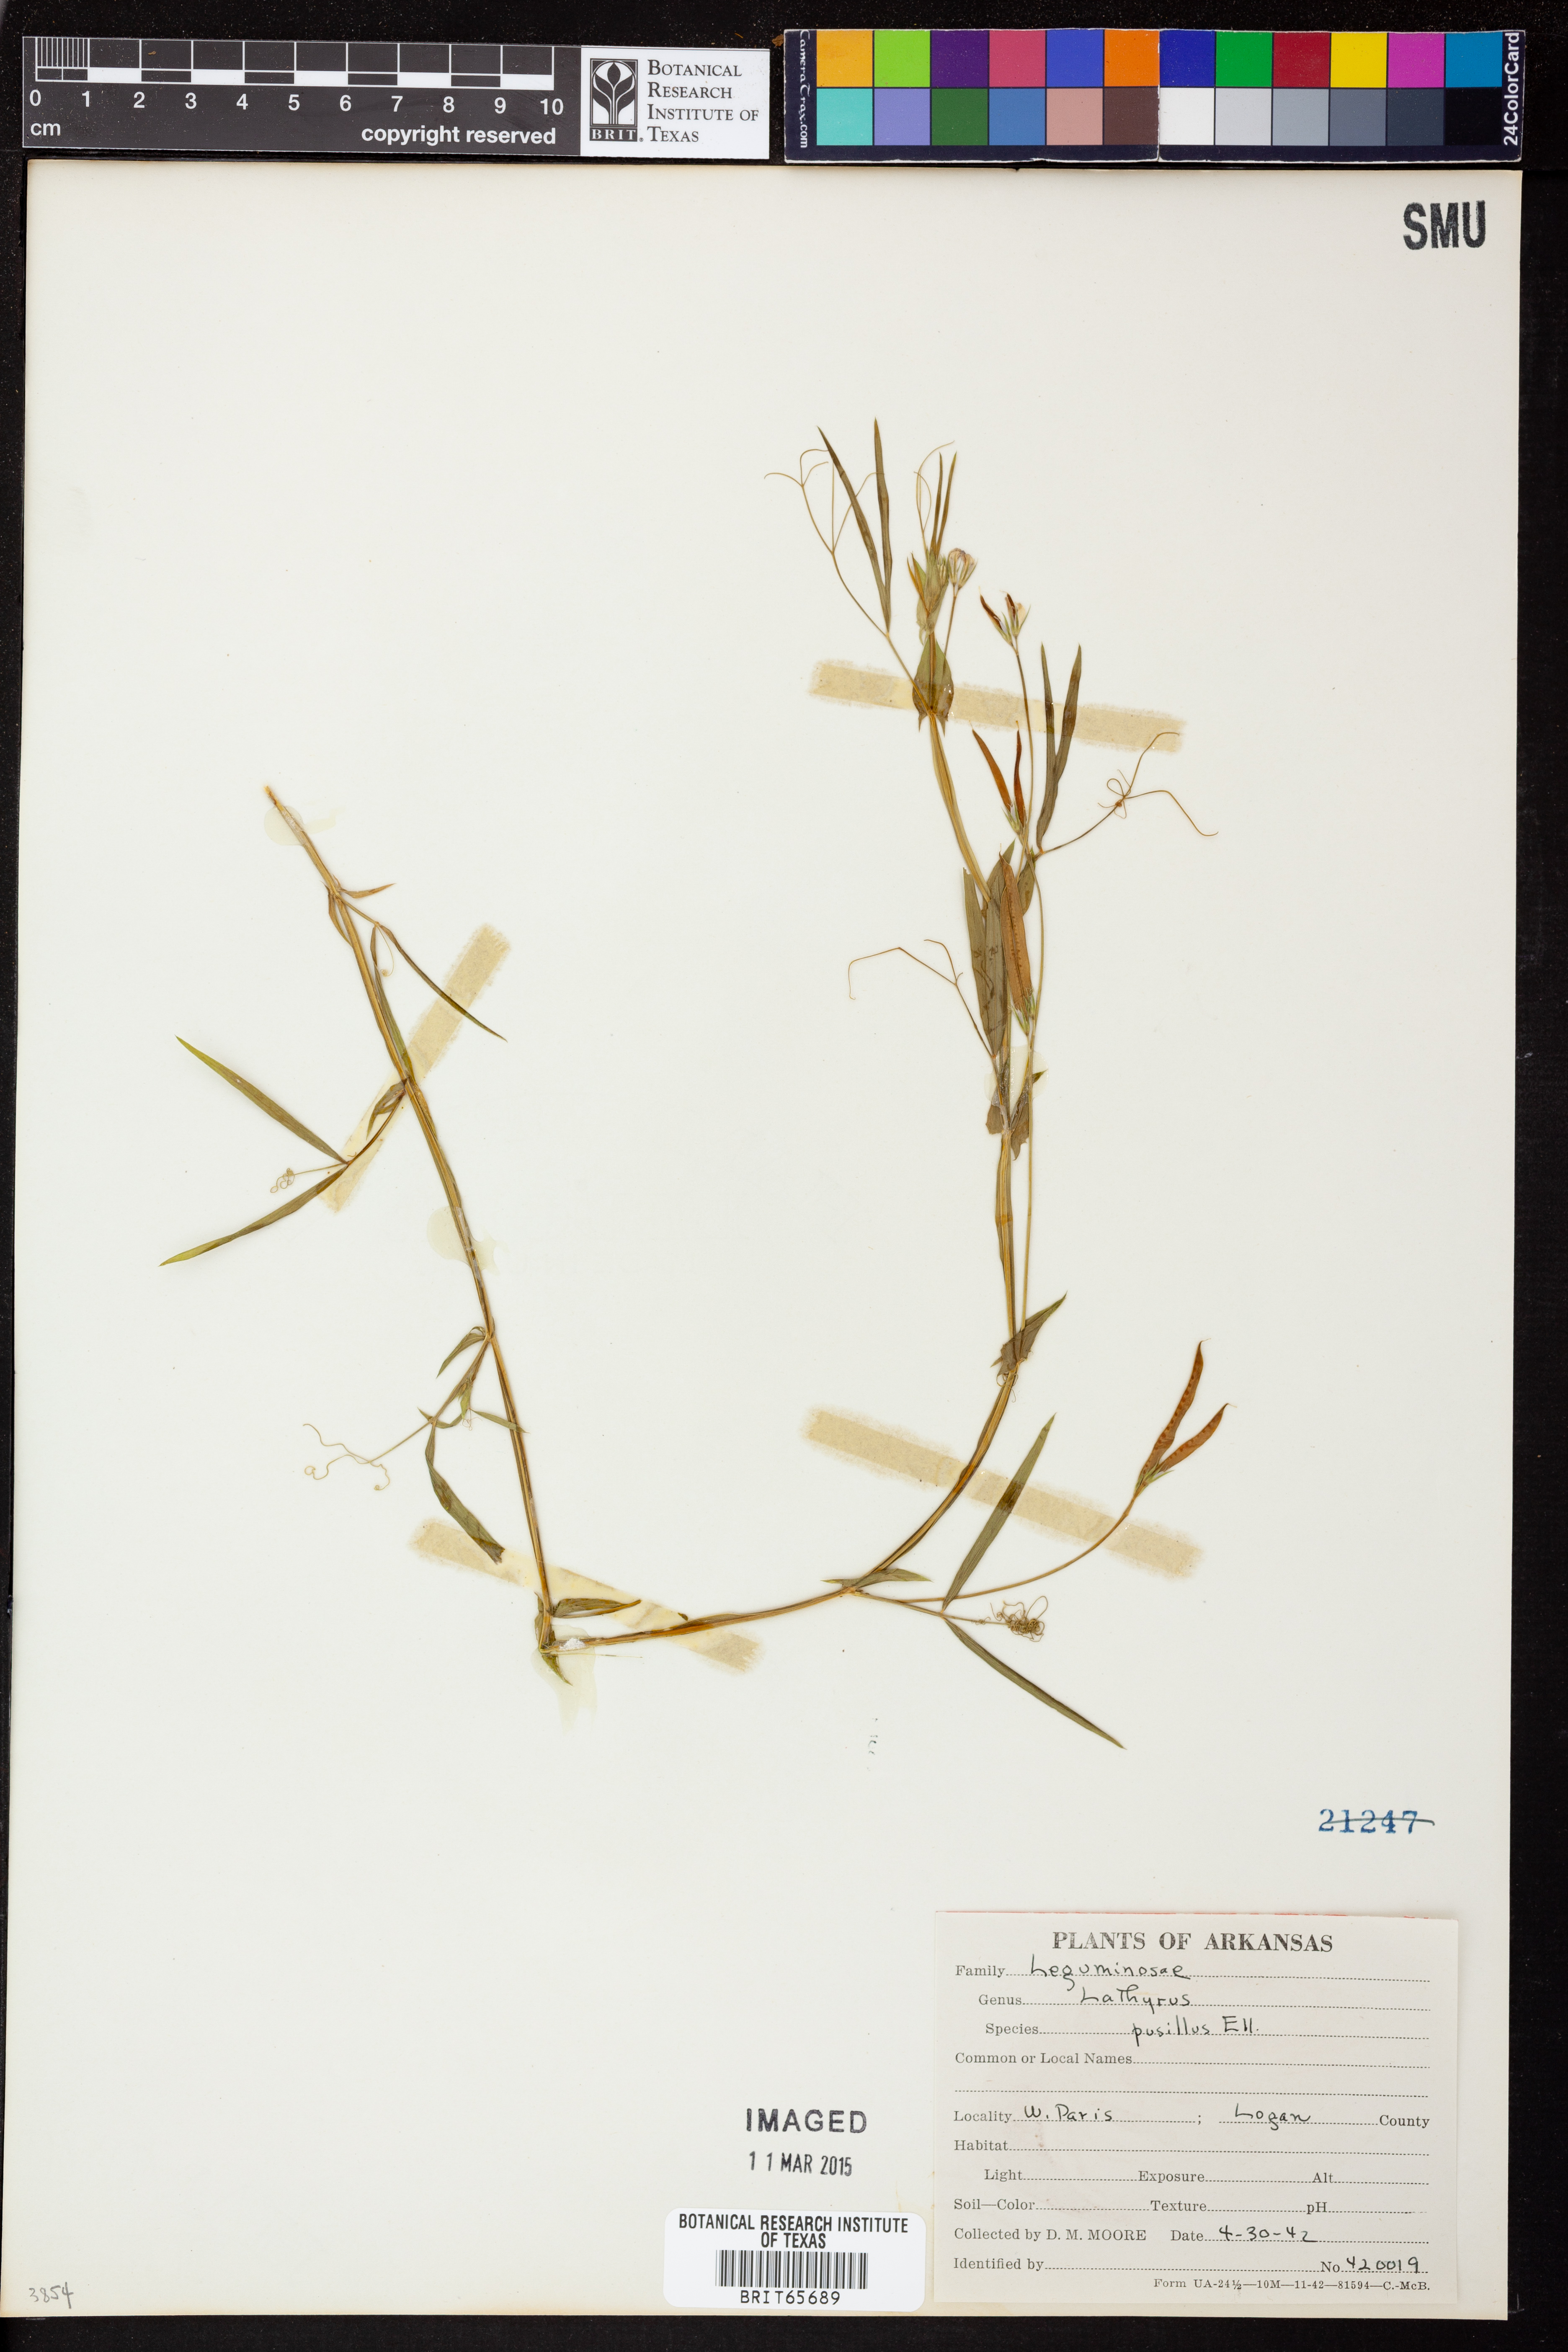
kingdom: Plantae
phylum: Tracheophyta
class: Magnoliopsida
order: Fabales
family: Fabaceae
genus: Lathyrus
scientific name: Lathyrus
